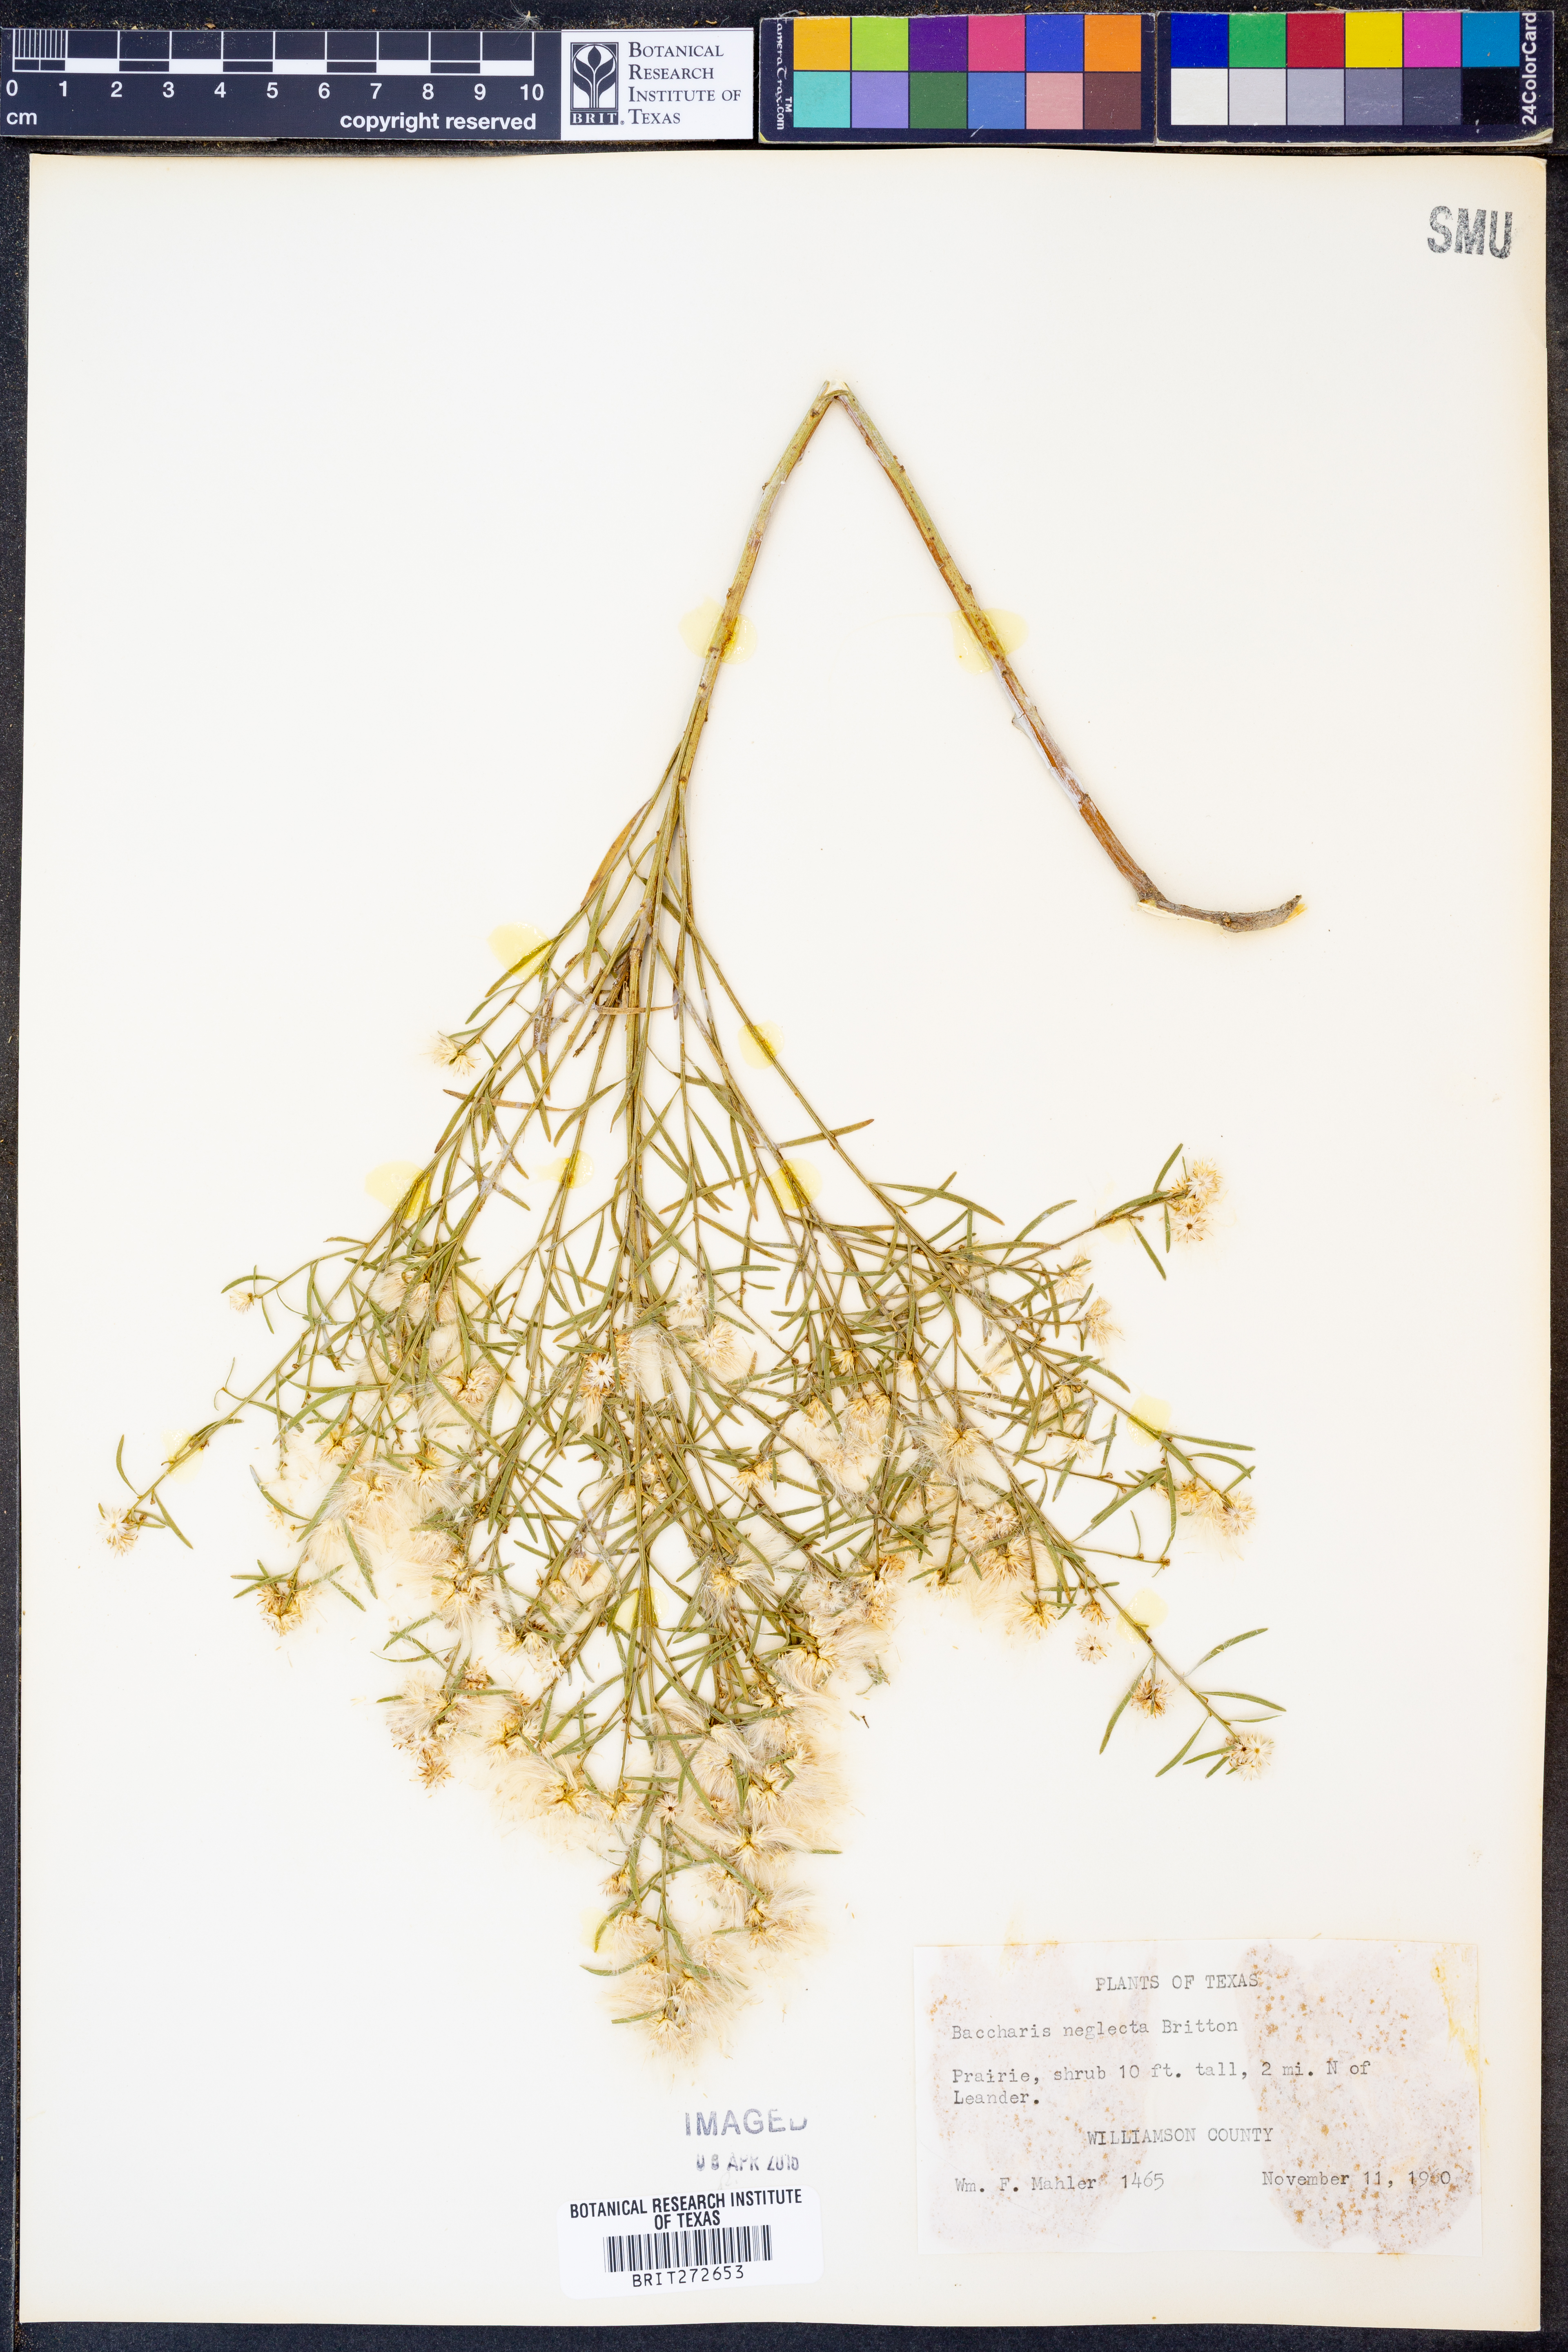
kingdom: Plantae
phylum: Tracheophyta
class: Magnoliopsida
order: Asterales
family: Asteraceae
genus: Baccharis
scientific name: Baccharis neglecta
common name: Roosevelt-weed
